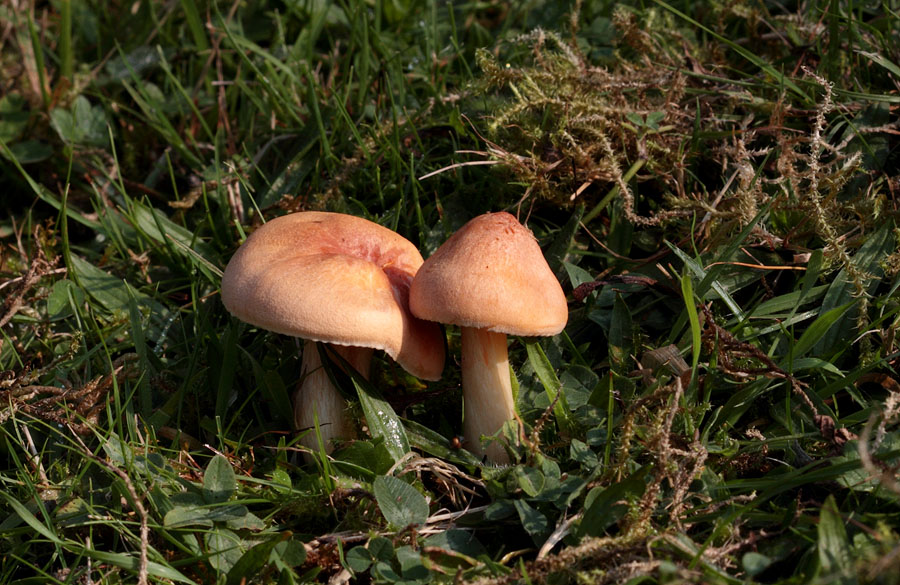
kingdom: Fungi
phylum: Basidiomycota
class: Agaricomycetes
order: Agaricales
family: Hygrophoraceae
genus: Cuphophyllus
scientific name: Cuphophyllus pratensis
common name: eng-vokshat
